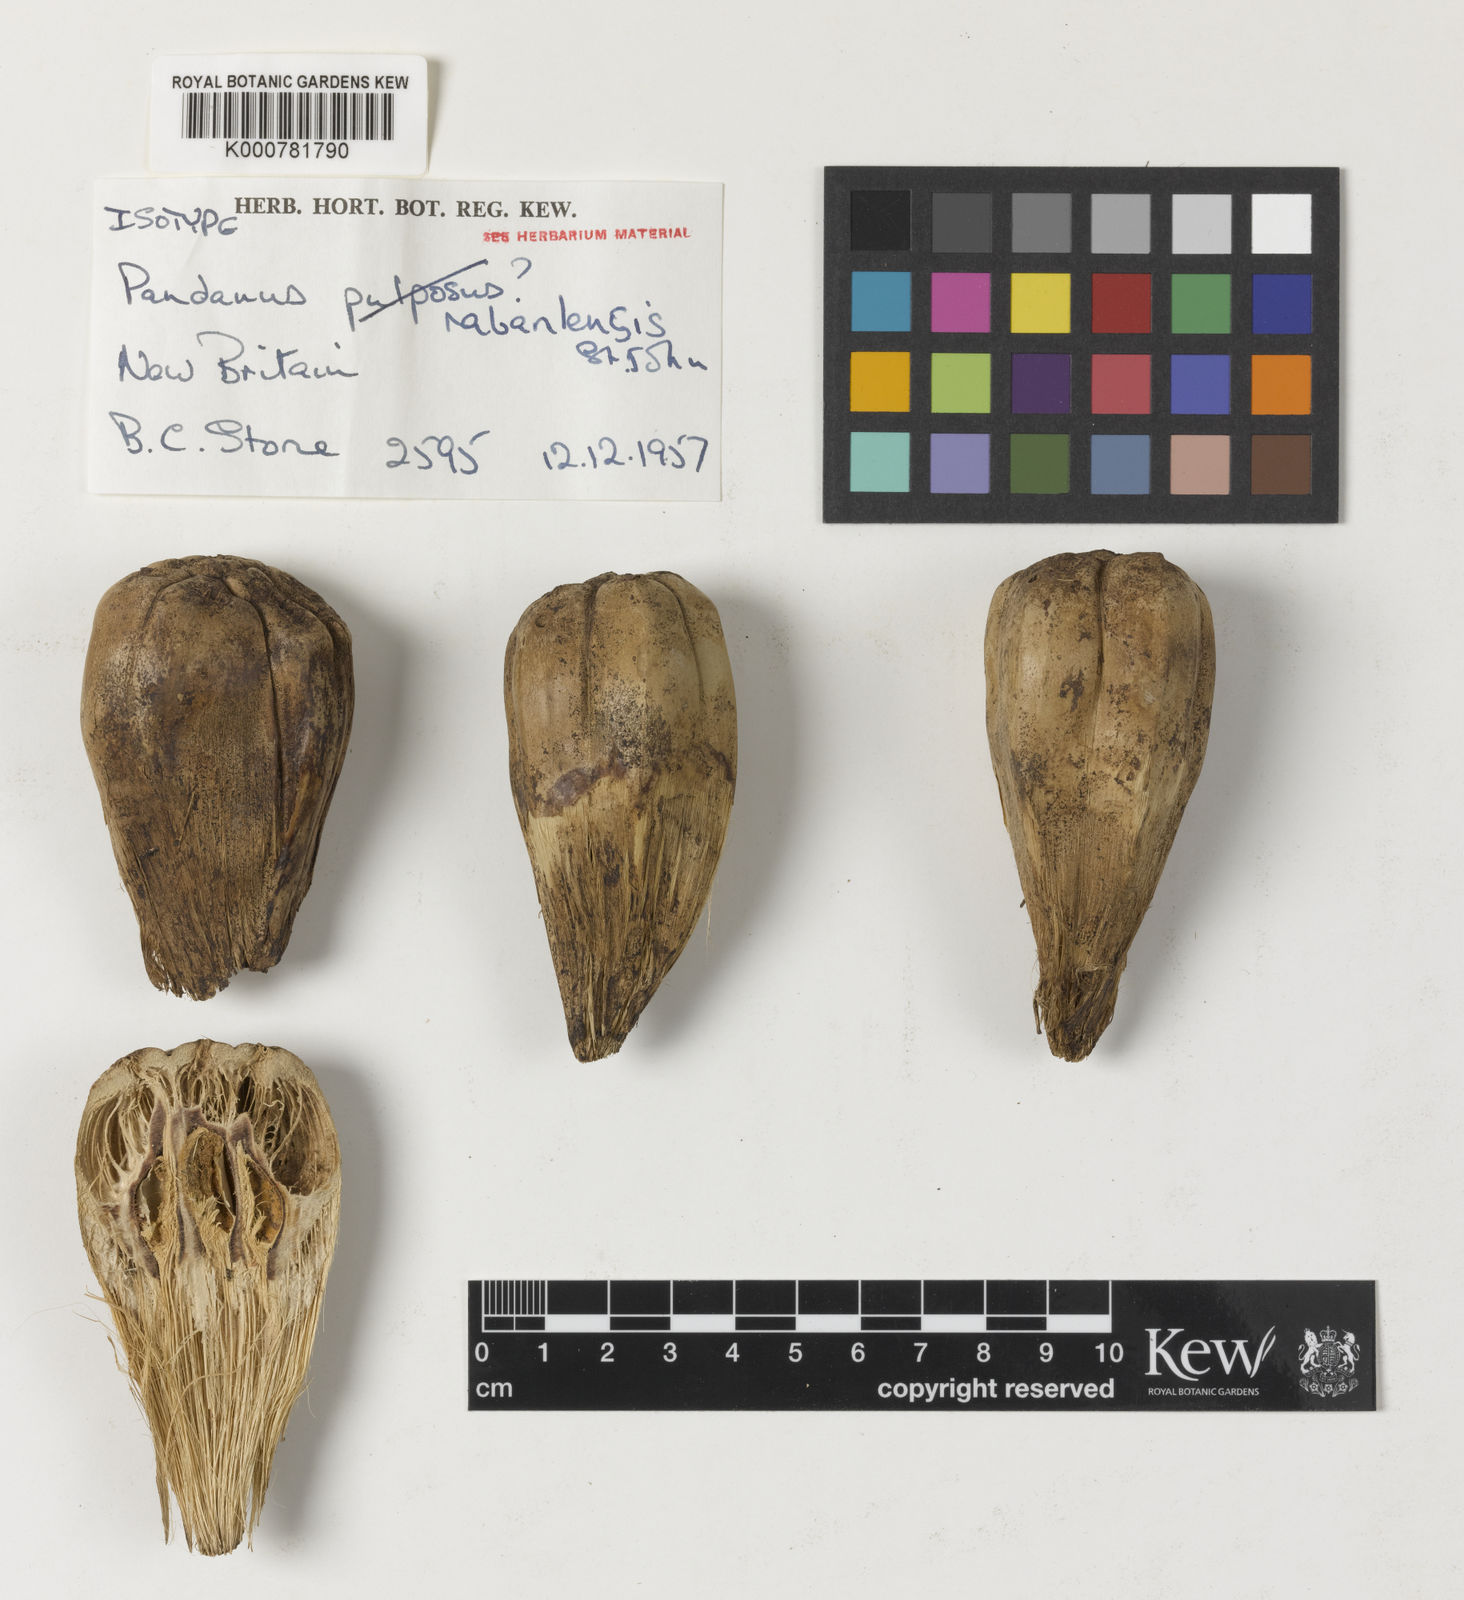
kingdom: Plantae
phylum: Tracheophyta
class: Liliopsida
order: Pandanales
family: Pandanaceae
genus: Pandanus
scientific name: Pandanus
